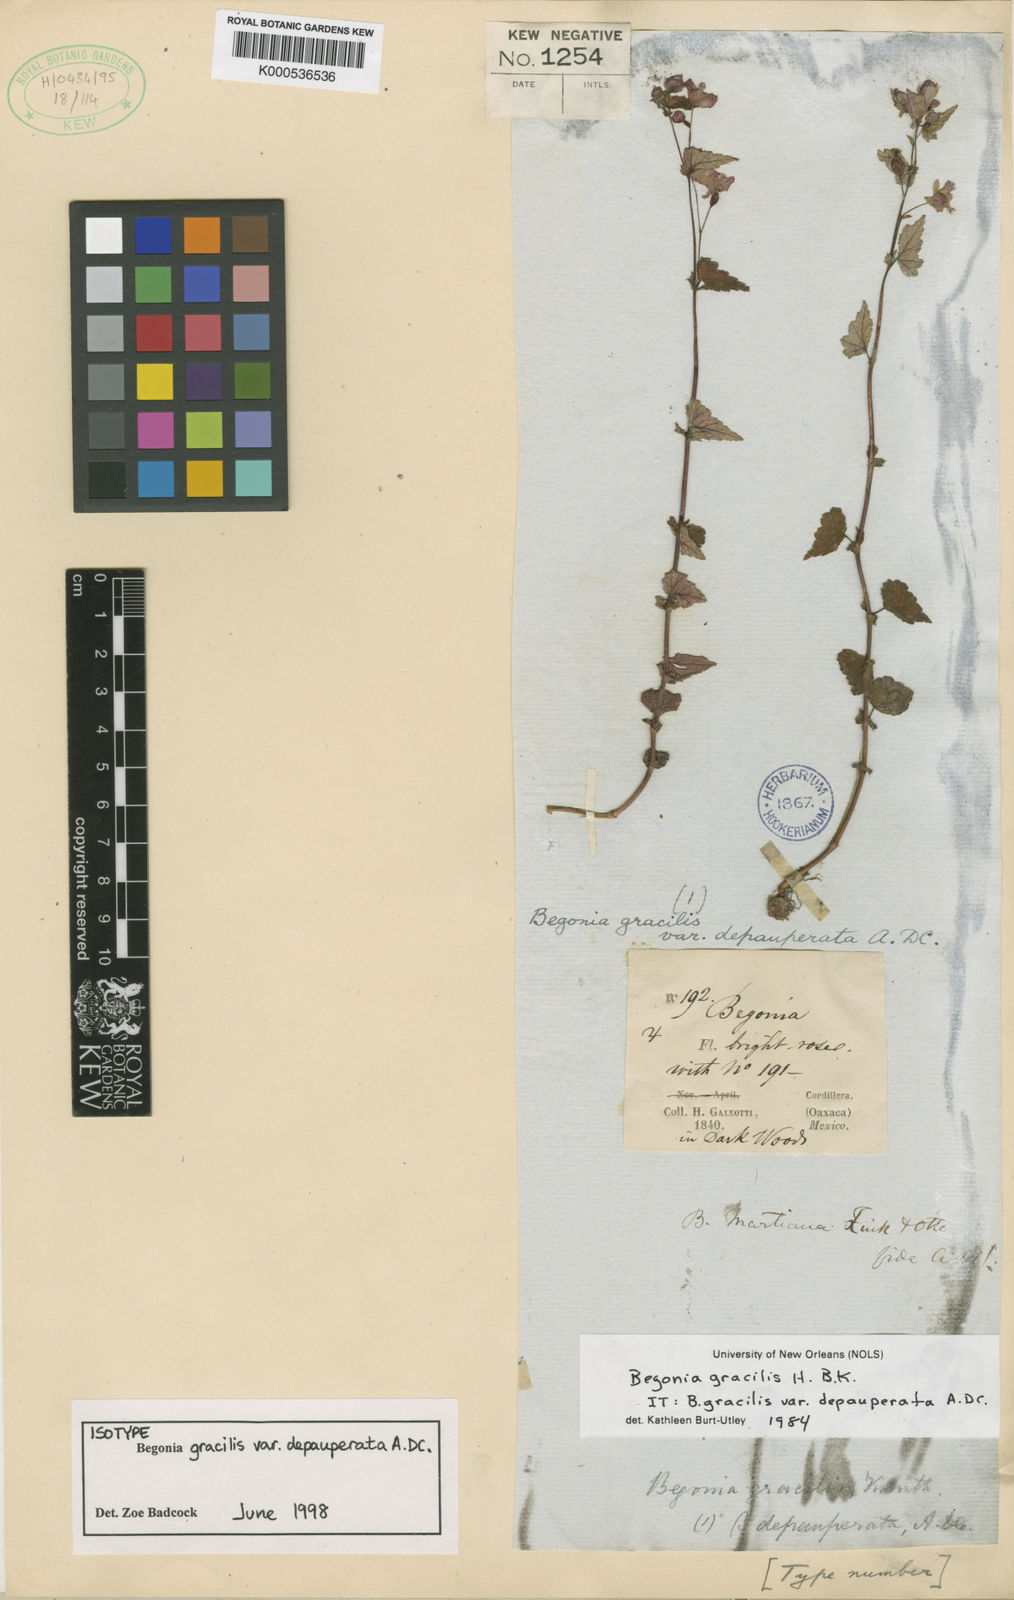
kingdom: Plantae
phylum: Tracheophyta
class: Magnoliopsida
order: Cucurbitales
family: Begoniaceae
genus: Begonia
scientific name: Begonia gracilis
